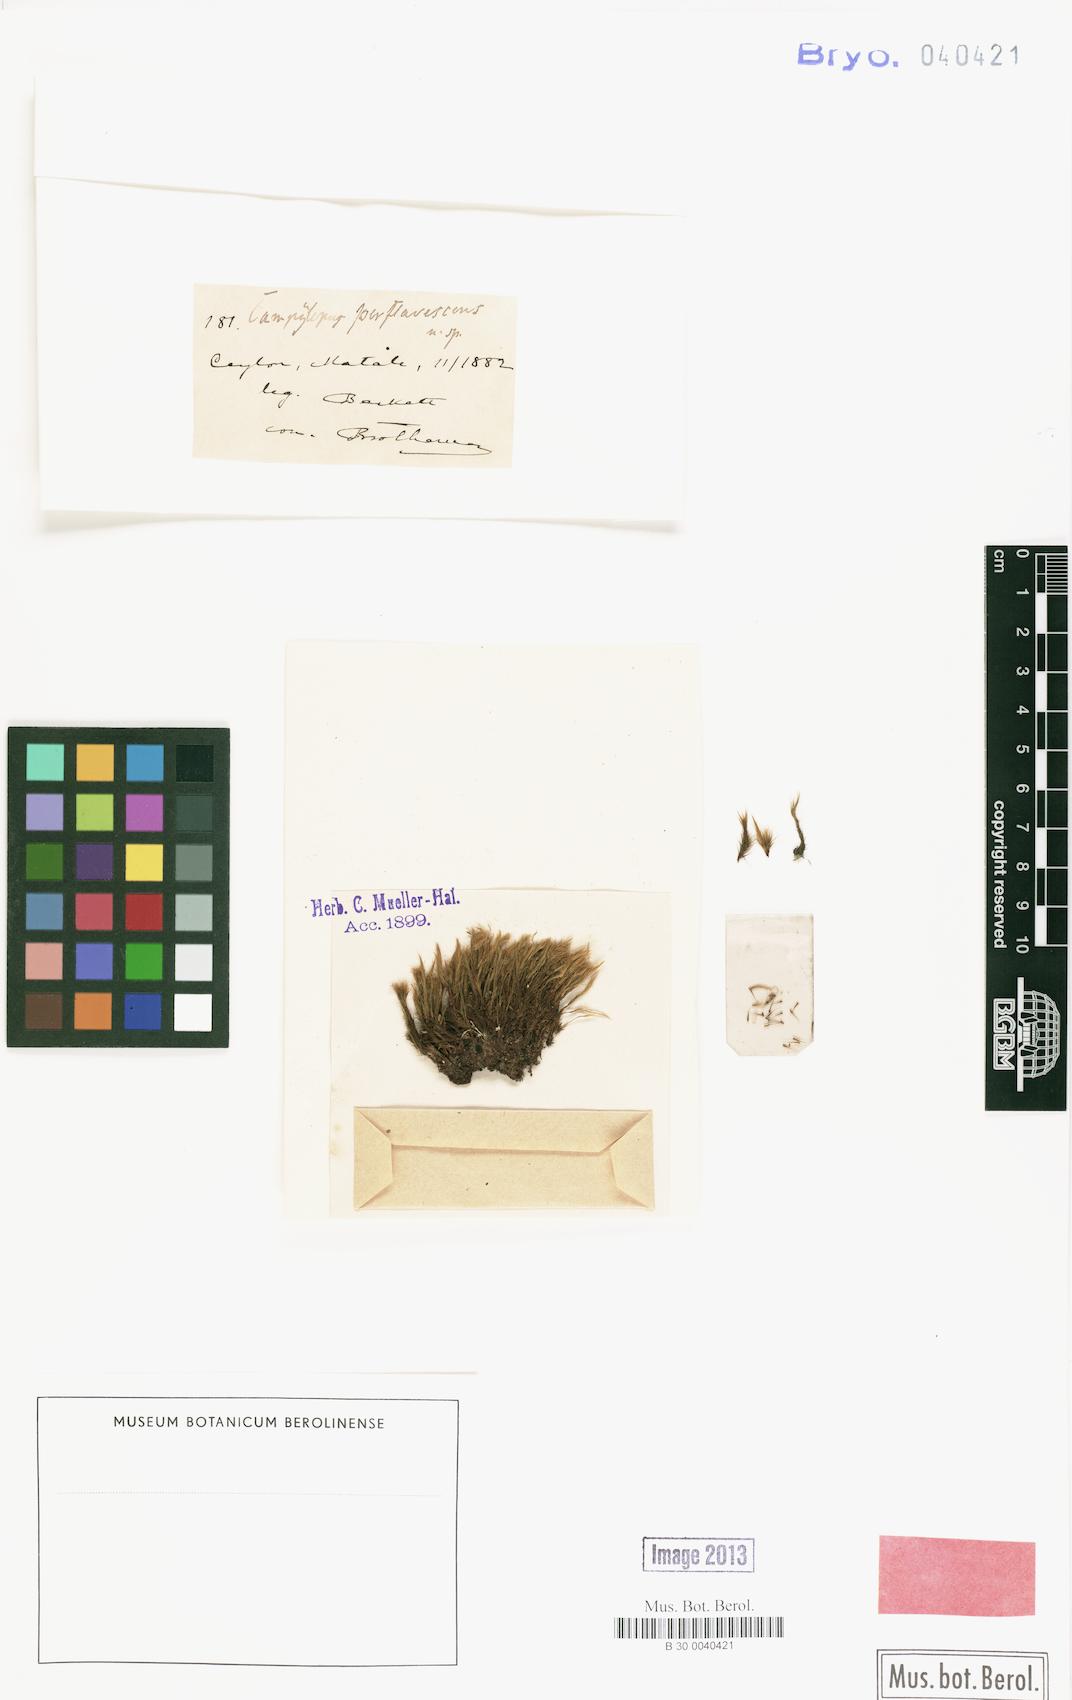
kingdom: Plantae
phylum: Bryophyta
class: Bryopsida
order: Dicranales
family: Dicranaceae
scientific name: Dicranaceae
